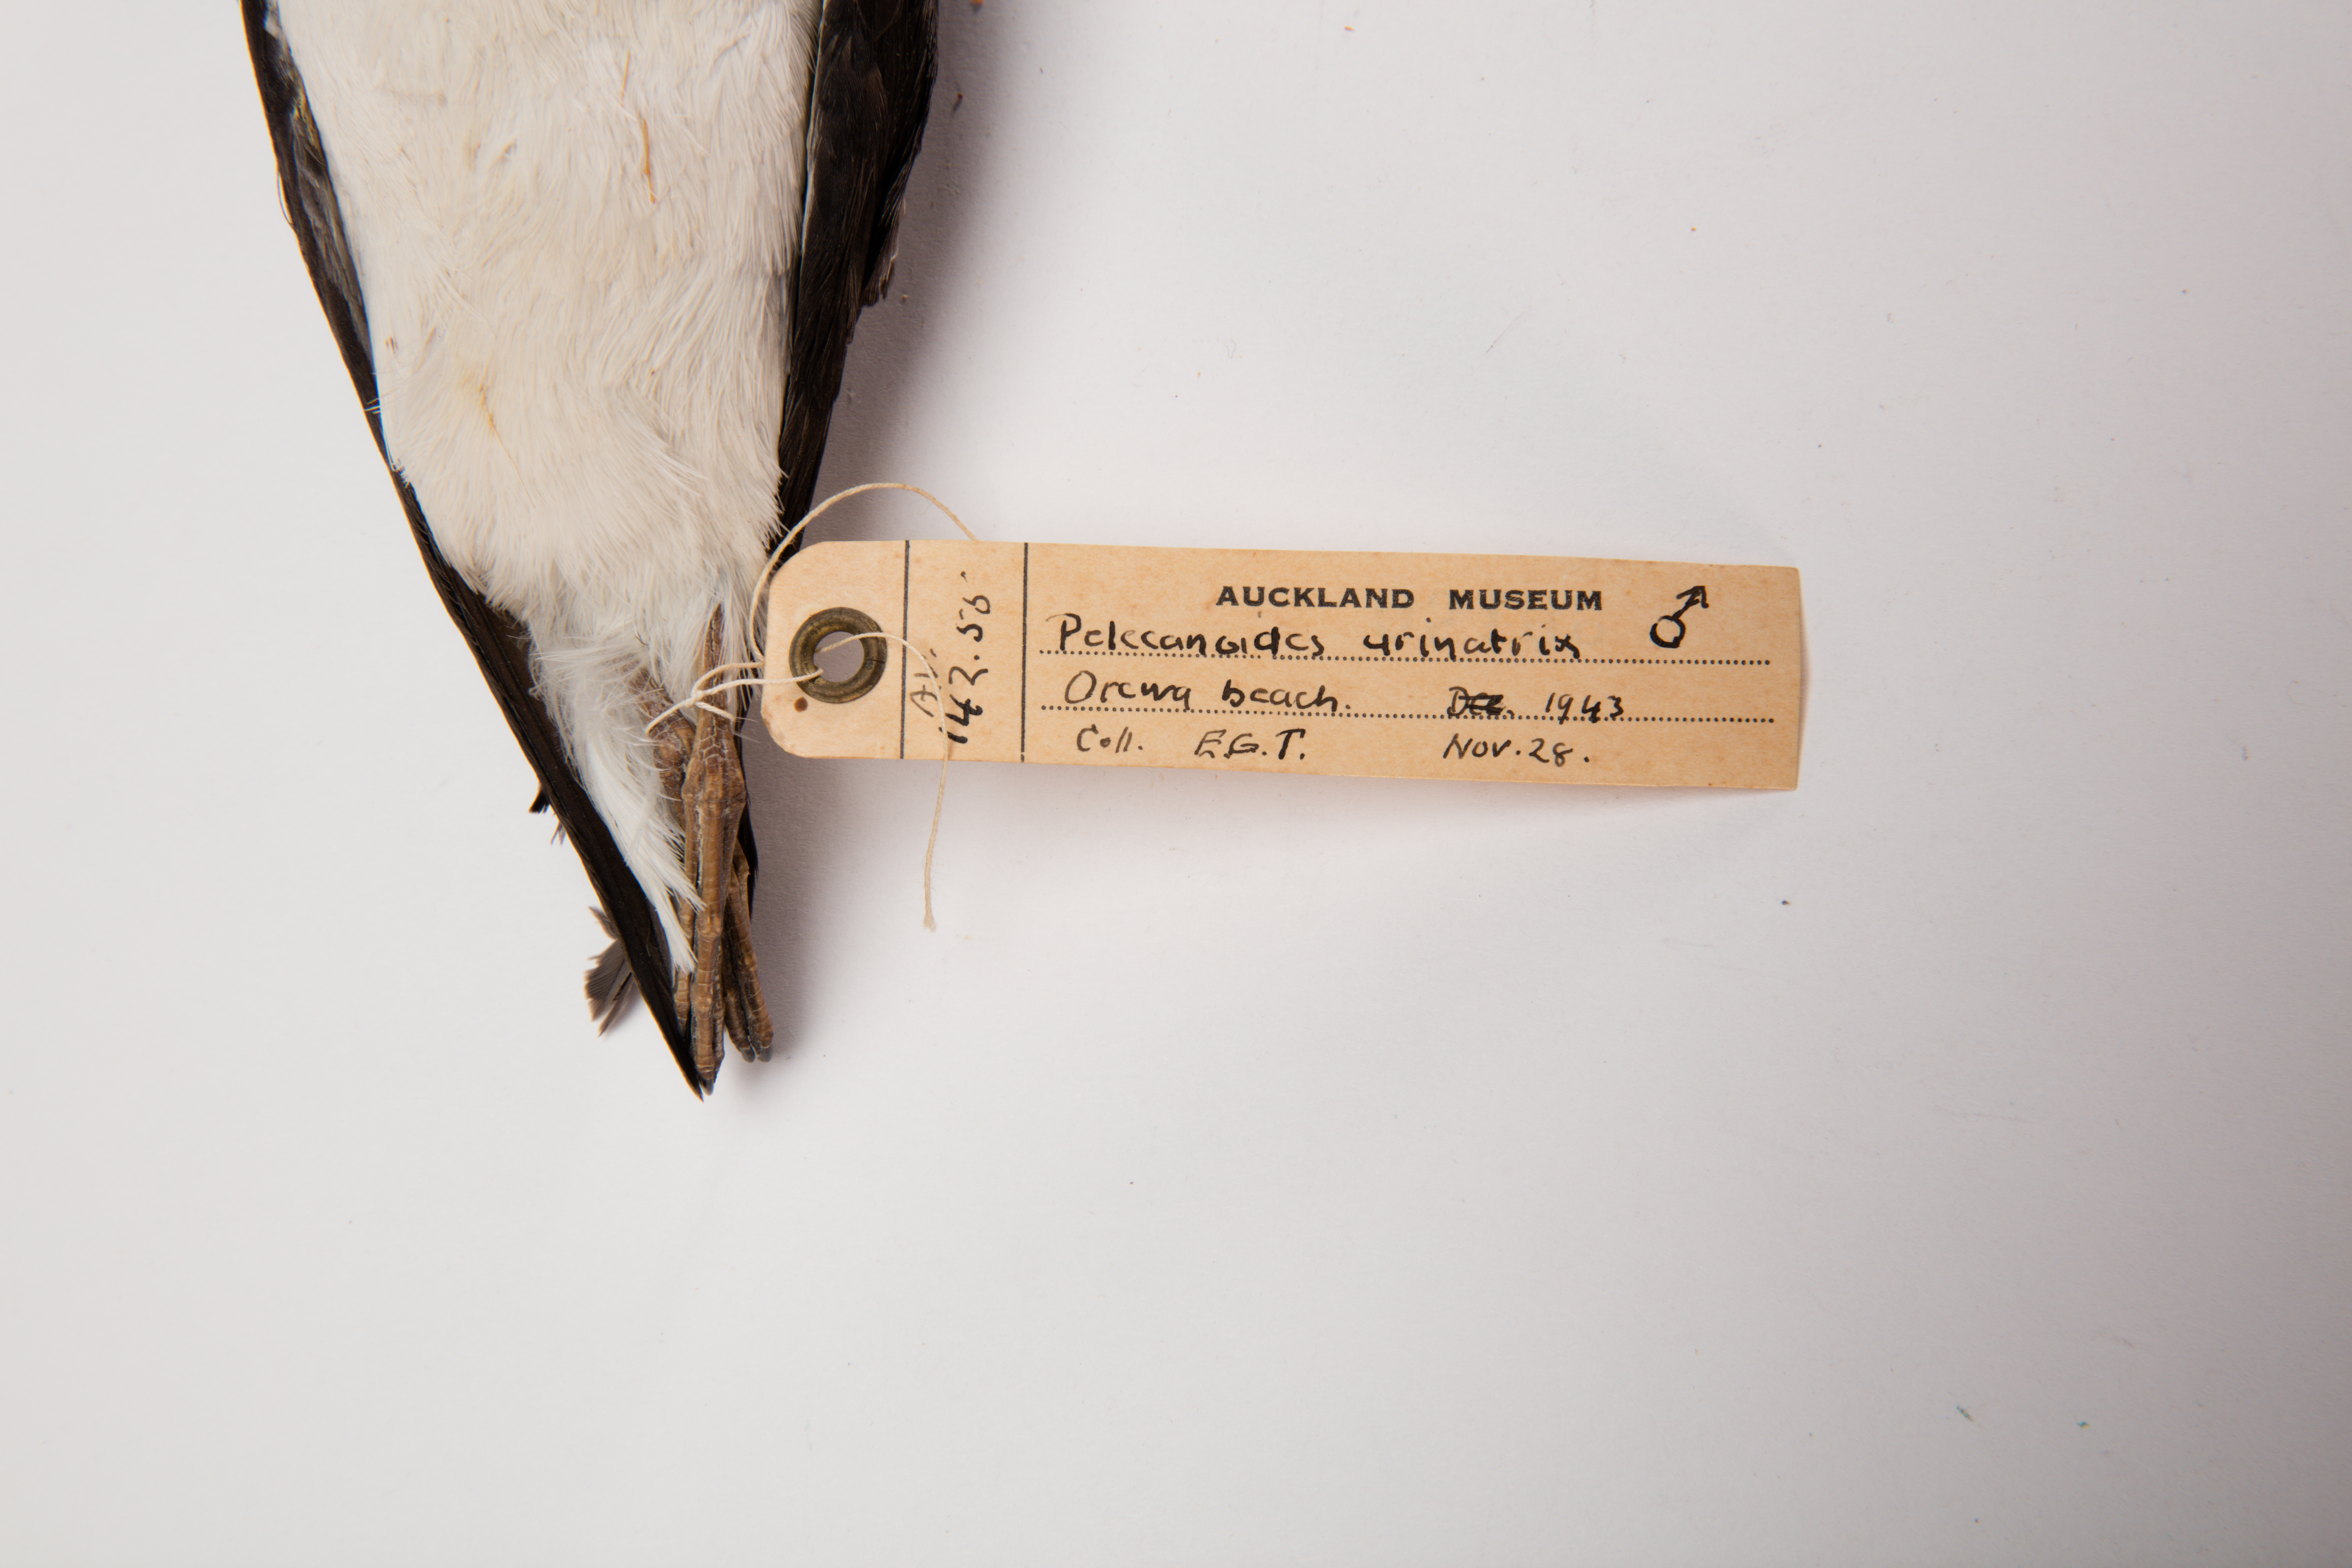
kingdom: Animalia
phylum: Chordata
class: Aves
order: Procellariiformes
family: Pelecanoididae
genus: Pelecanoides
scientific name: Pelecanoides urinatrix
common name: Common diving-petrel
